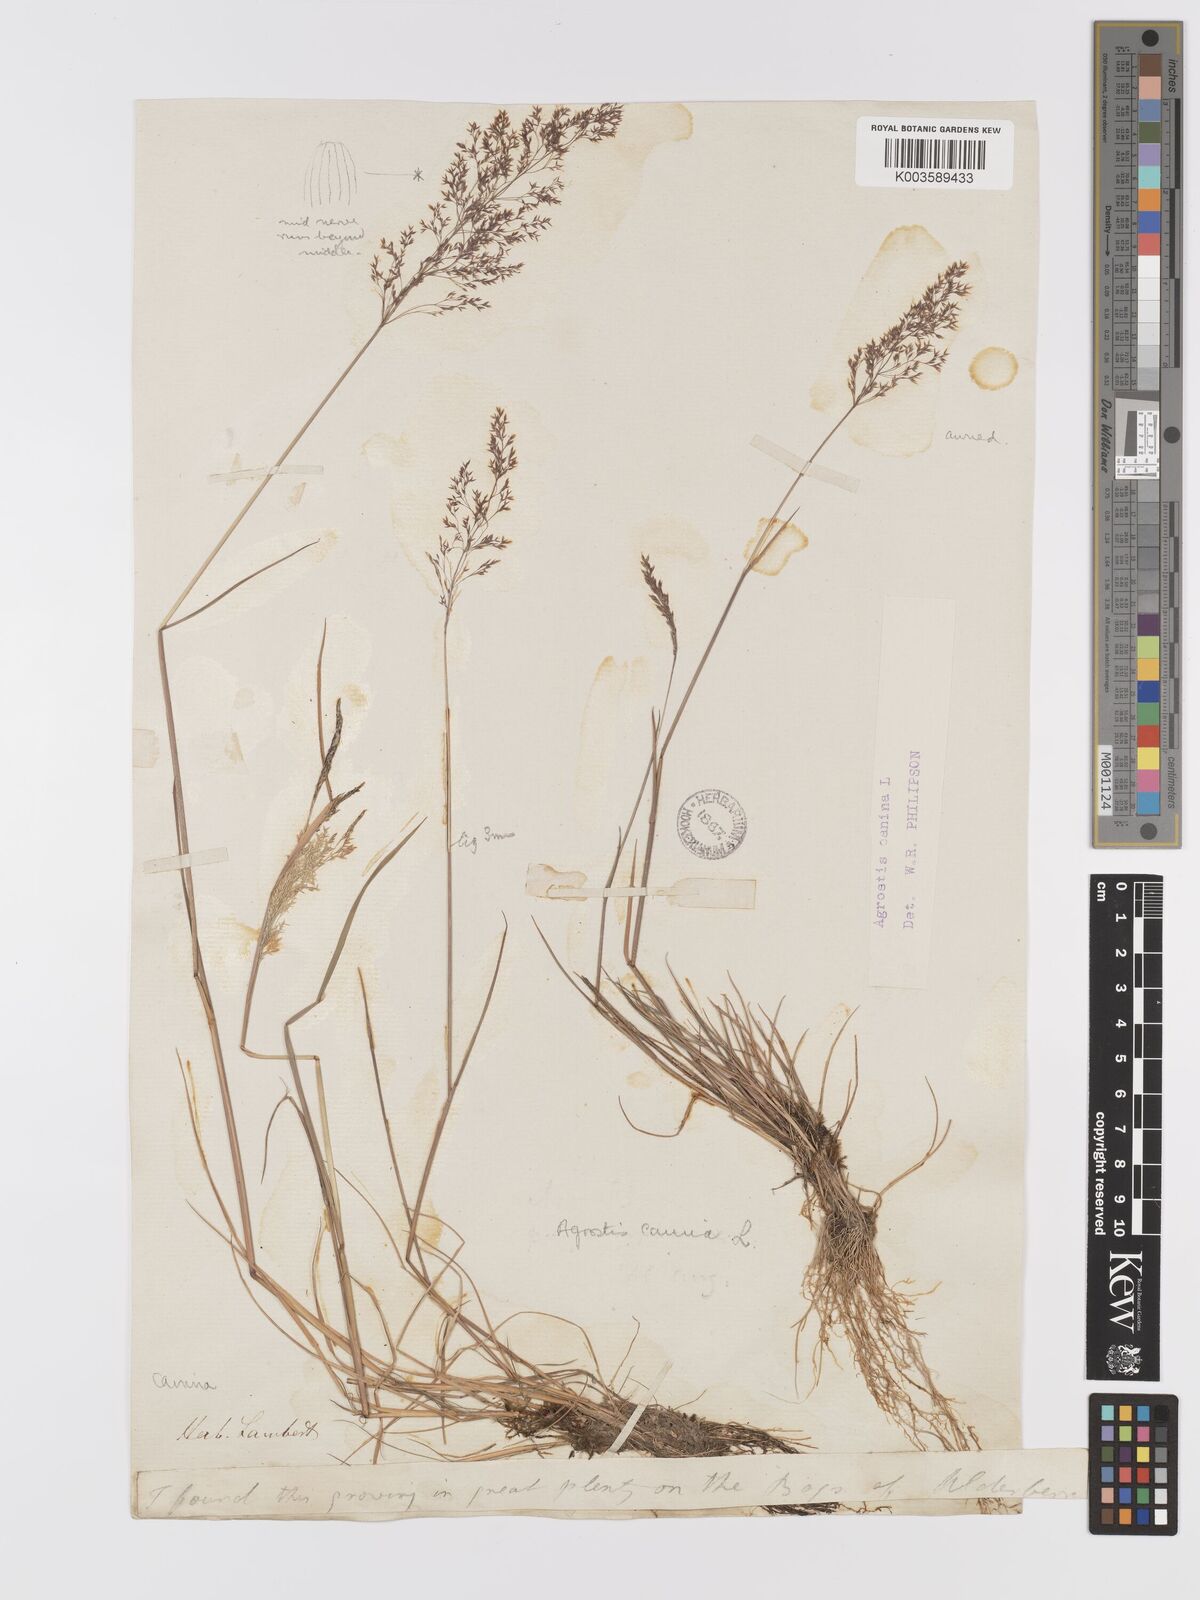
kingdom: Plantae
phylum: Tracheophyta
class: Liliopsida
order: Poales
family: Poaceae
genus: Agrostis
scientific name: Agrostis canina
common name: Velvet bent
